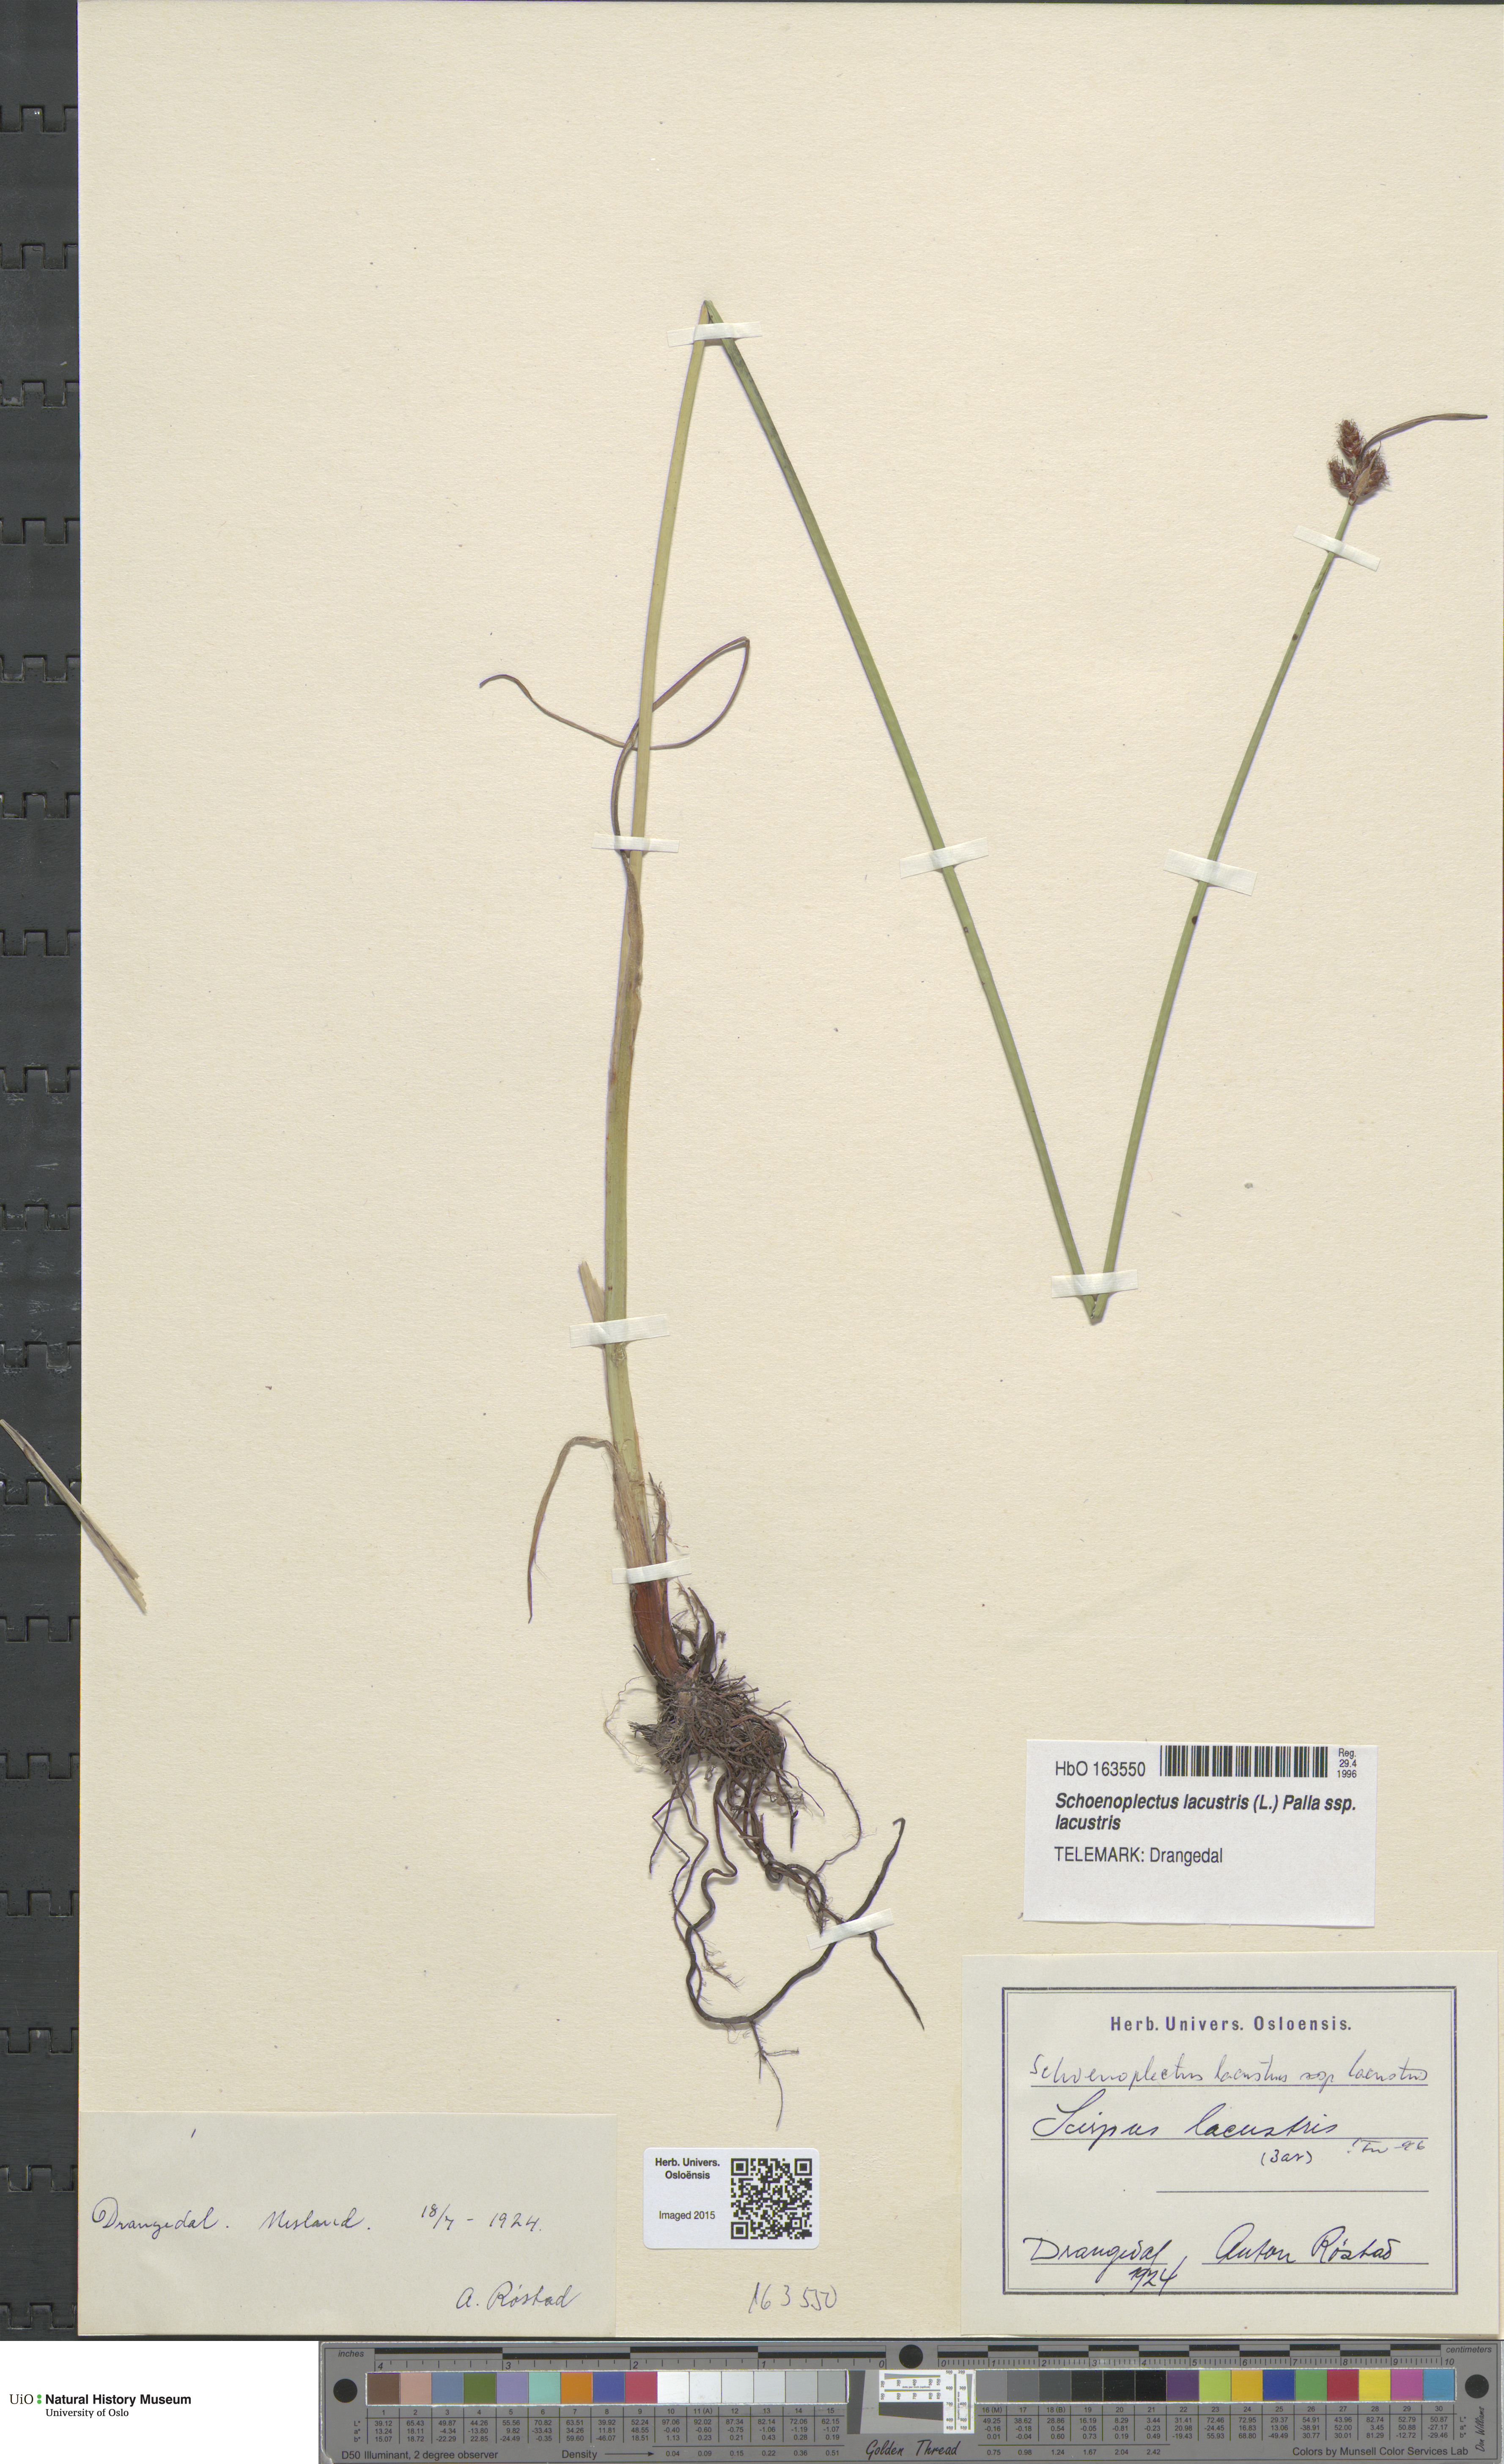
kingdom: Plantae
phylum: Tracheophyta
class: Liliopsida
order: Poales
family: Cyperaceae
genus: Schoenoplectus
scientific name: Schoenoplectus lacustris
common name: Common club-rush
